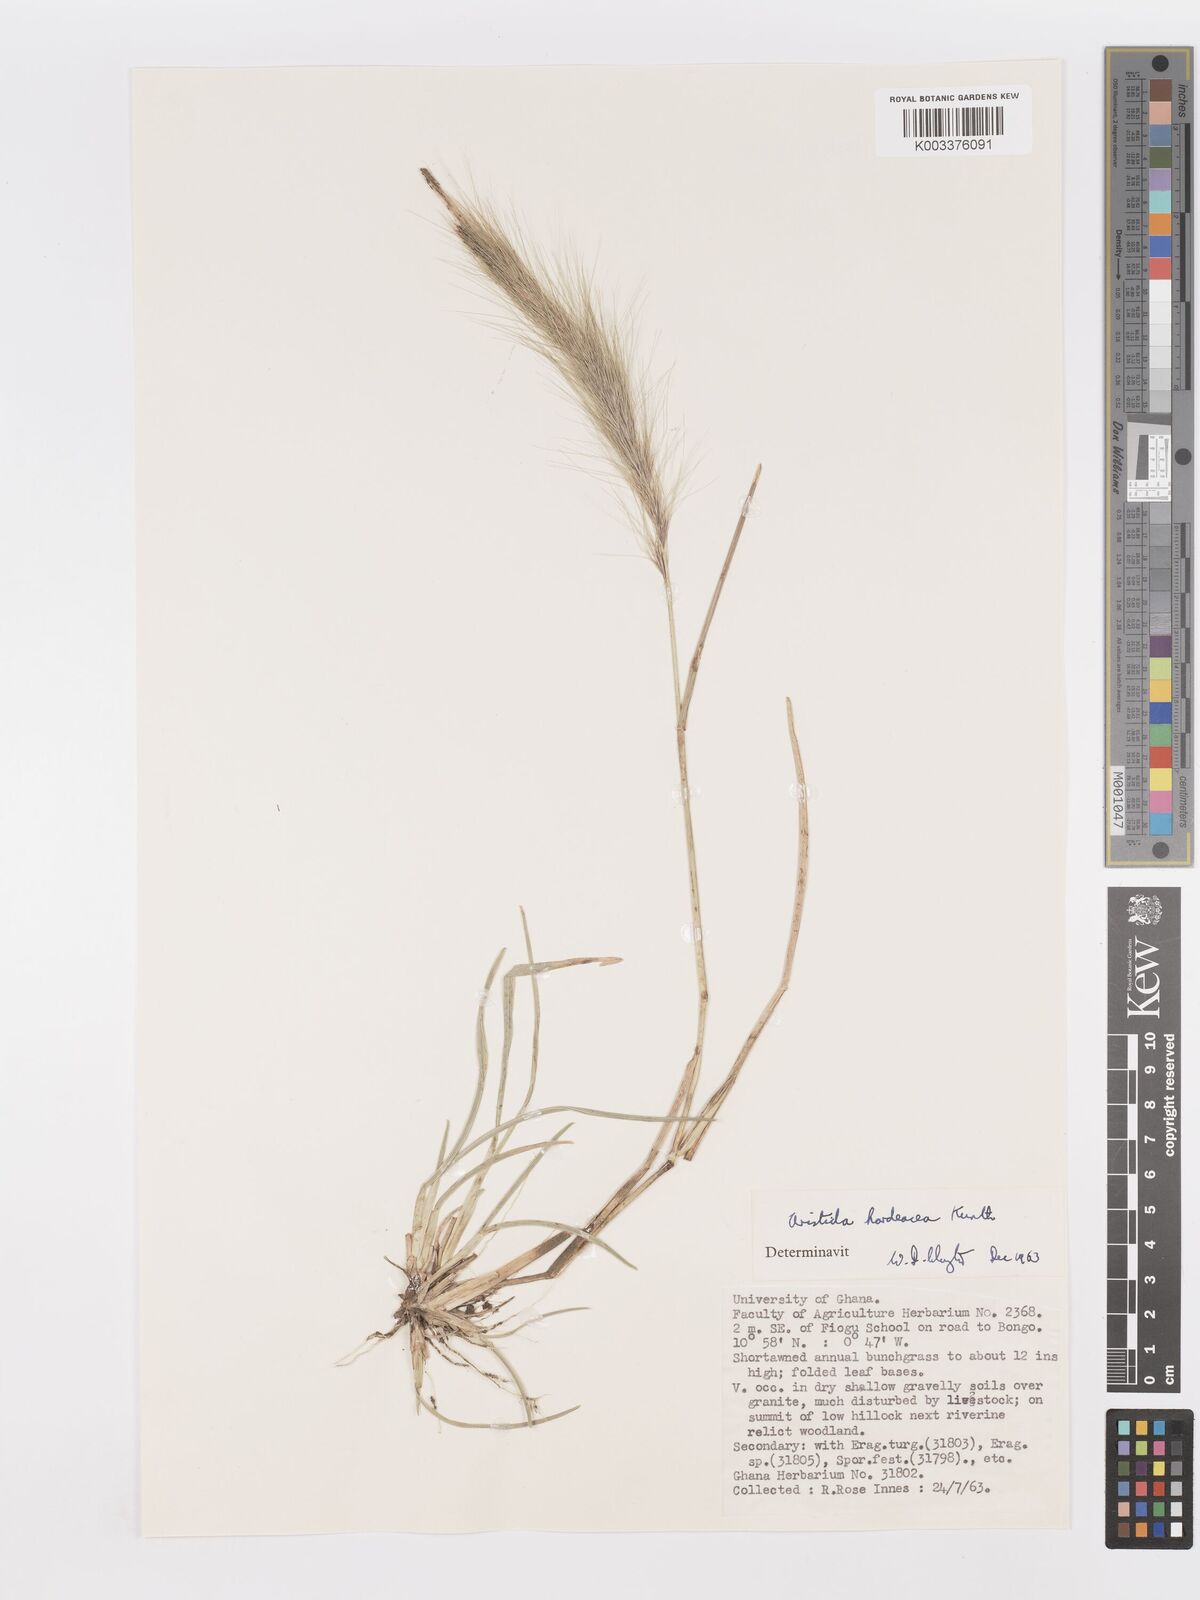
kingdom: Plantae
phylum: Tracheophyta
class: Liliopsida
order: Poales
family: Poaceae
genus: Aristida
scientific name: Aristida hordeacea
